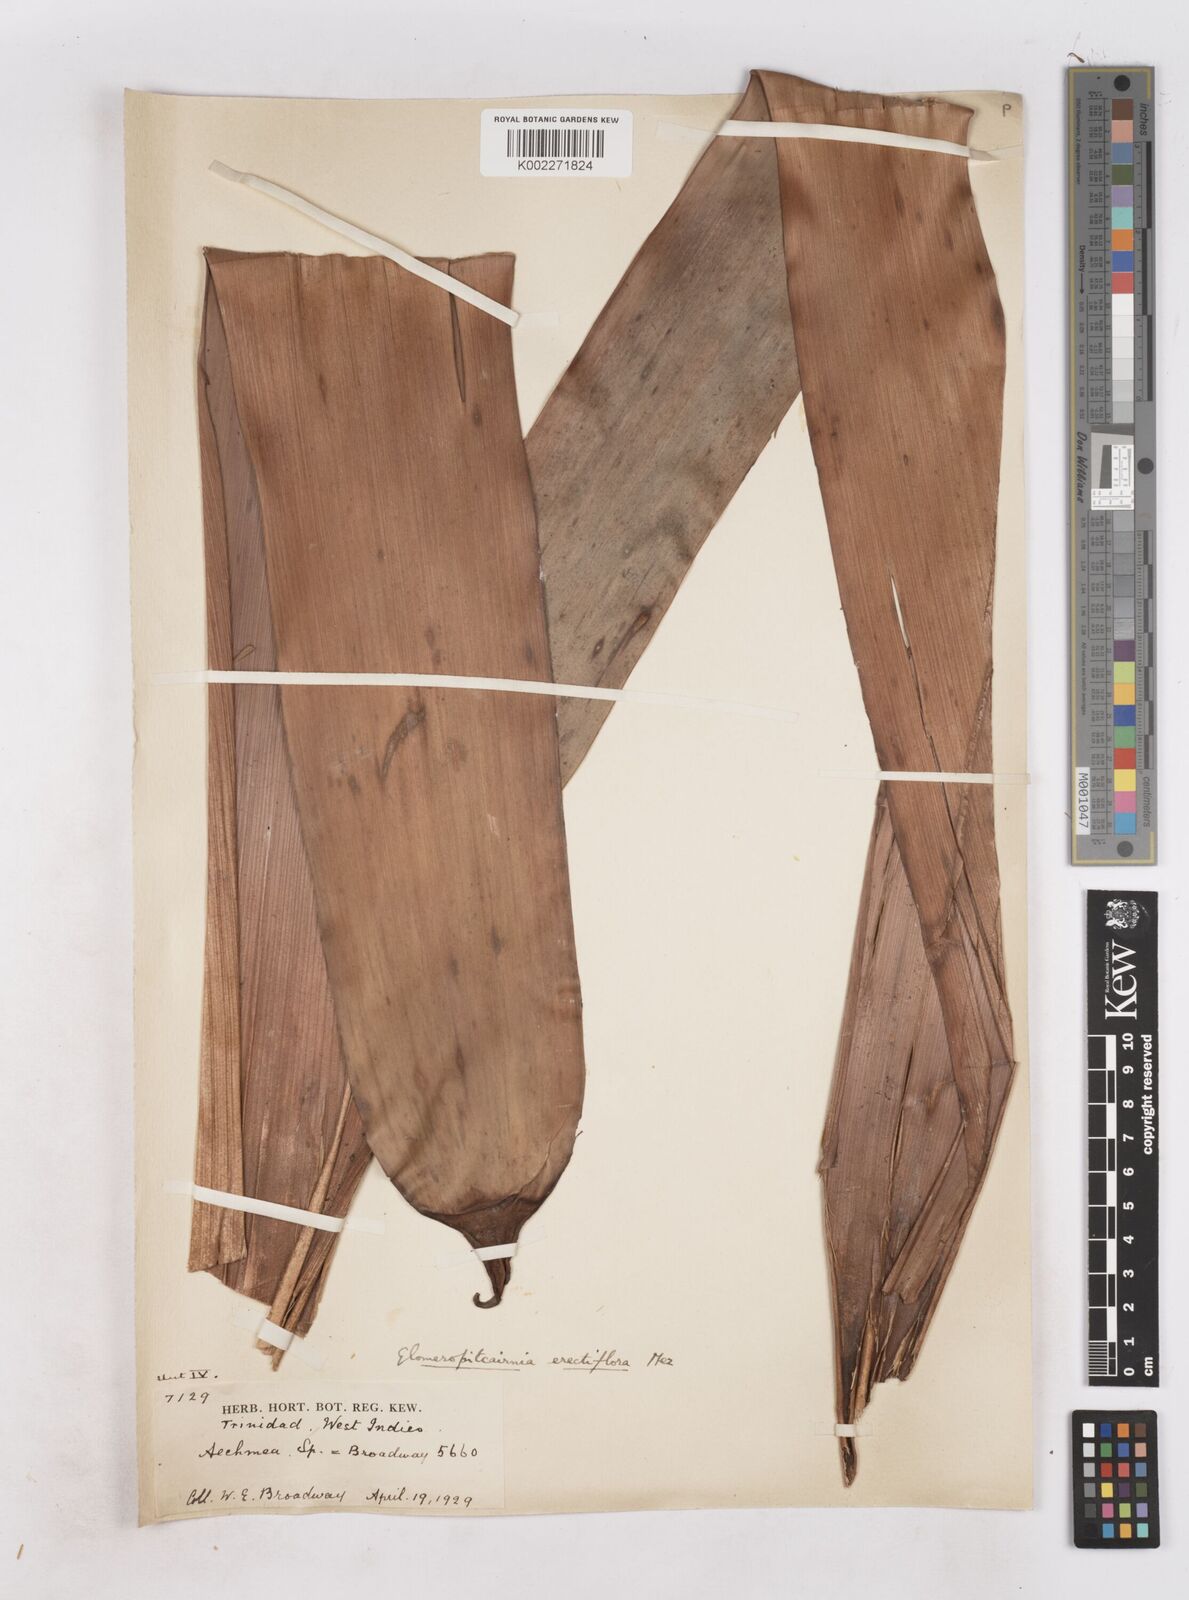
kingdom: Plantae
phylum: Tracheophyta
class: Liliopsida
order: Poales
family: Bromeliaceae
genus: Glomeropitcairnia
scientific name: Glomeropitcairnia erectiflora
